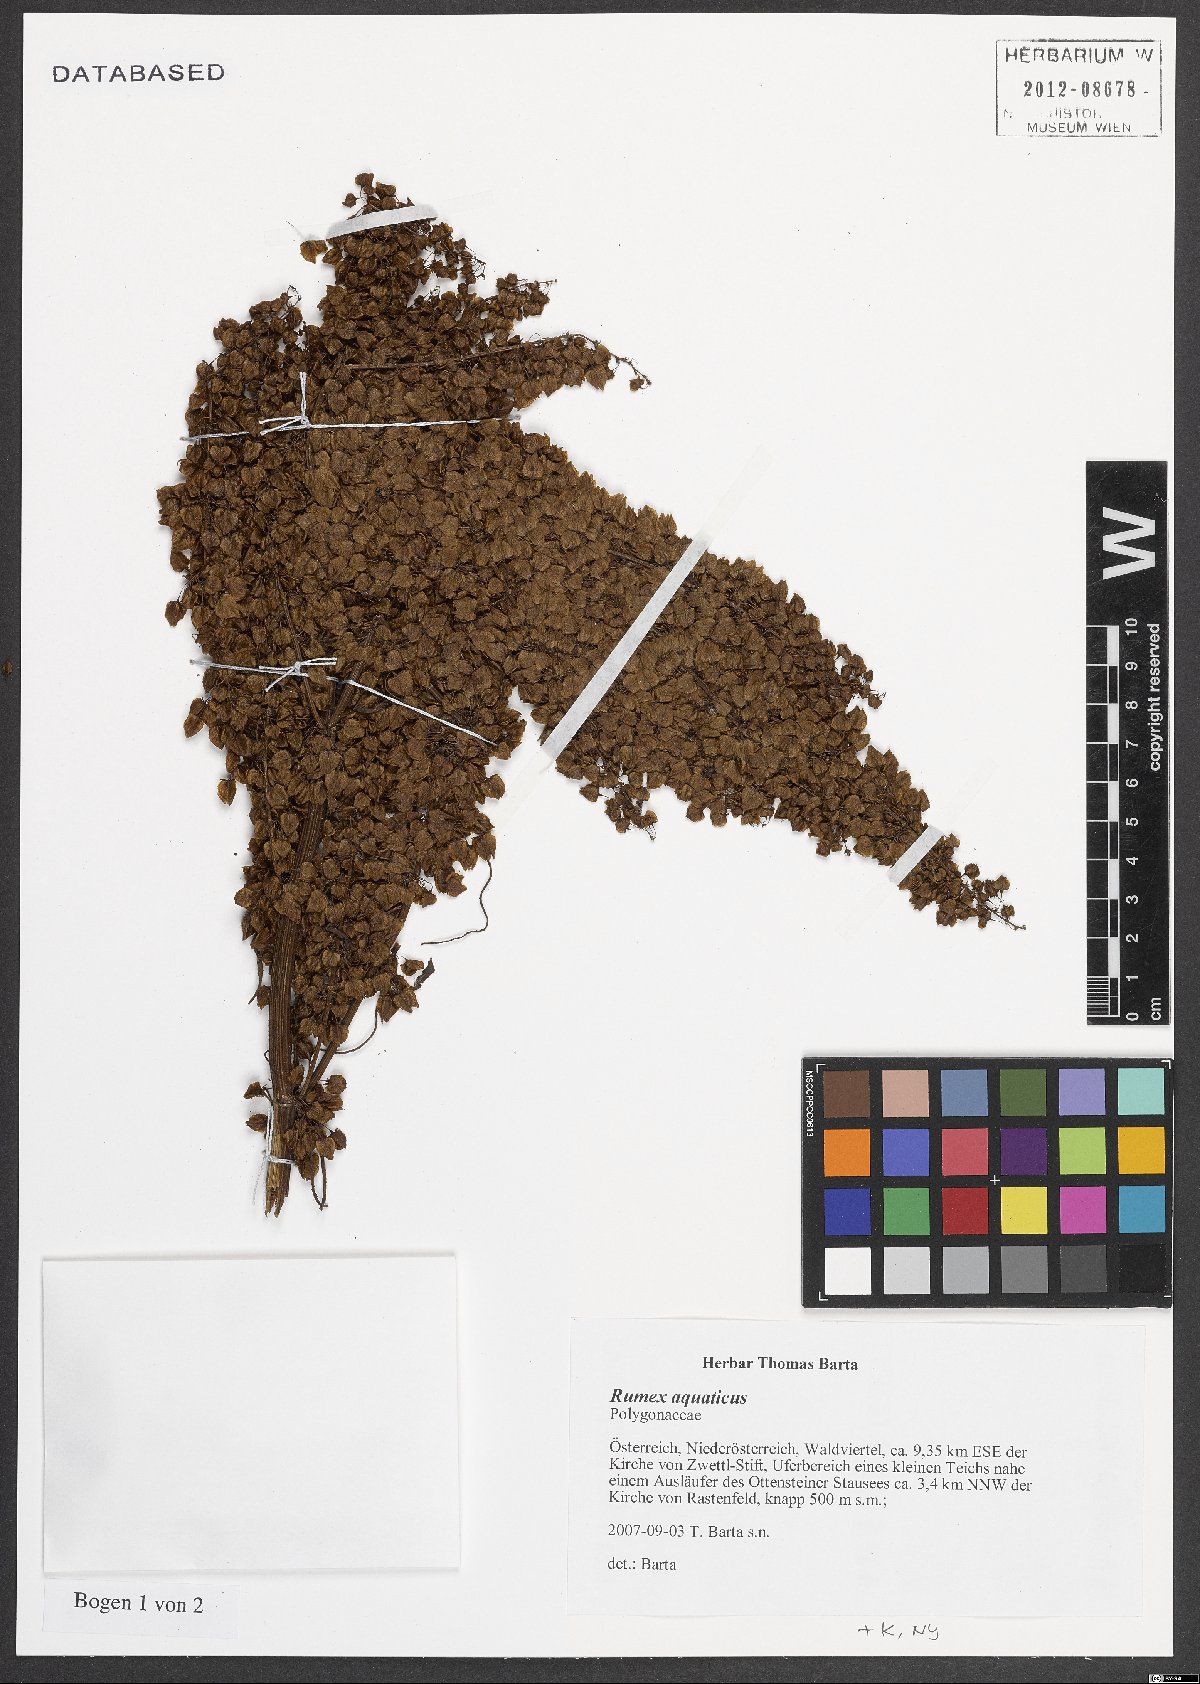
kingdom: Plantae
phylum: Tracheophyta
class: Magnoliopsida
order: Caryophyllales
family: Polygonaceae
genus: Rumex
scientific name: Rumex aquaticus
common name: Scottish dock
